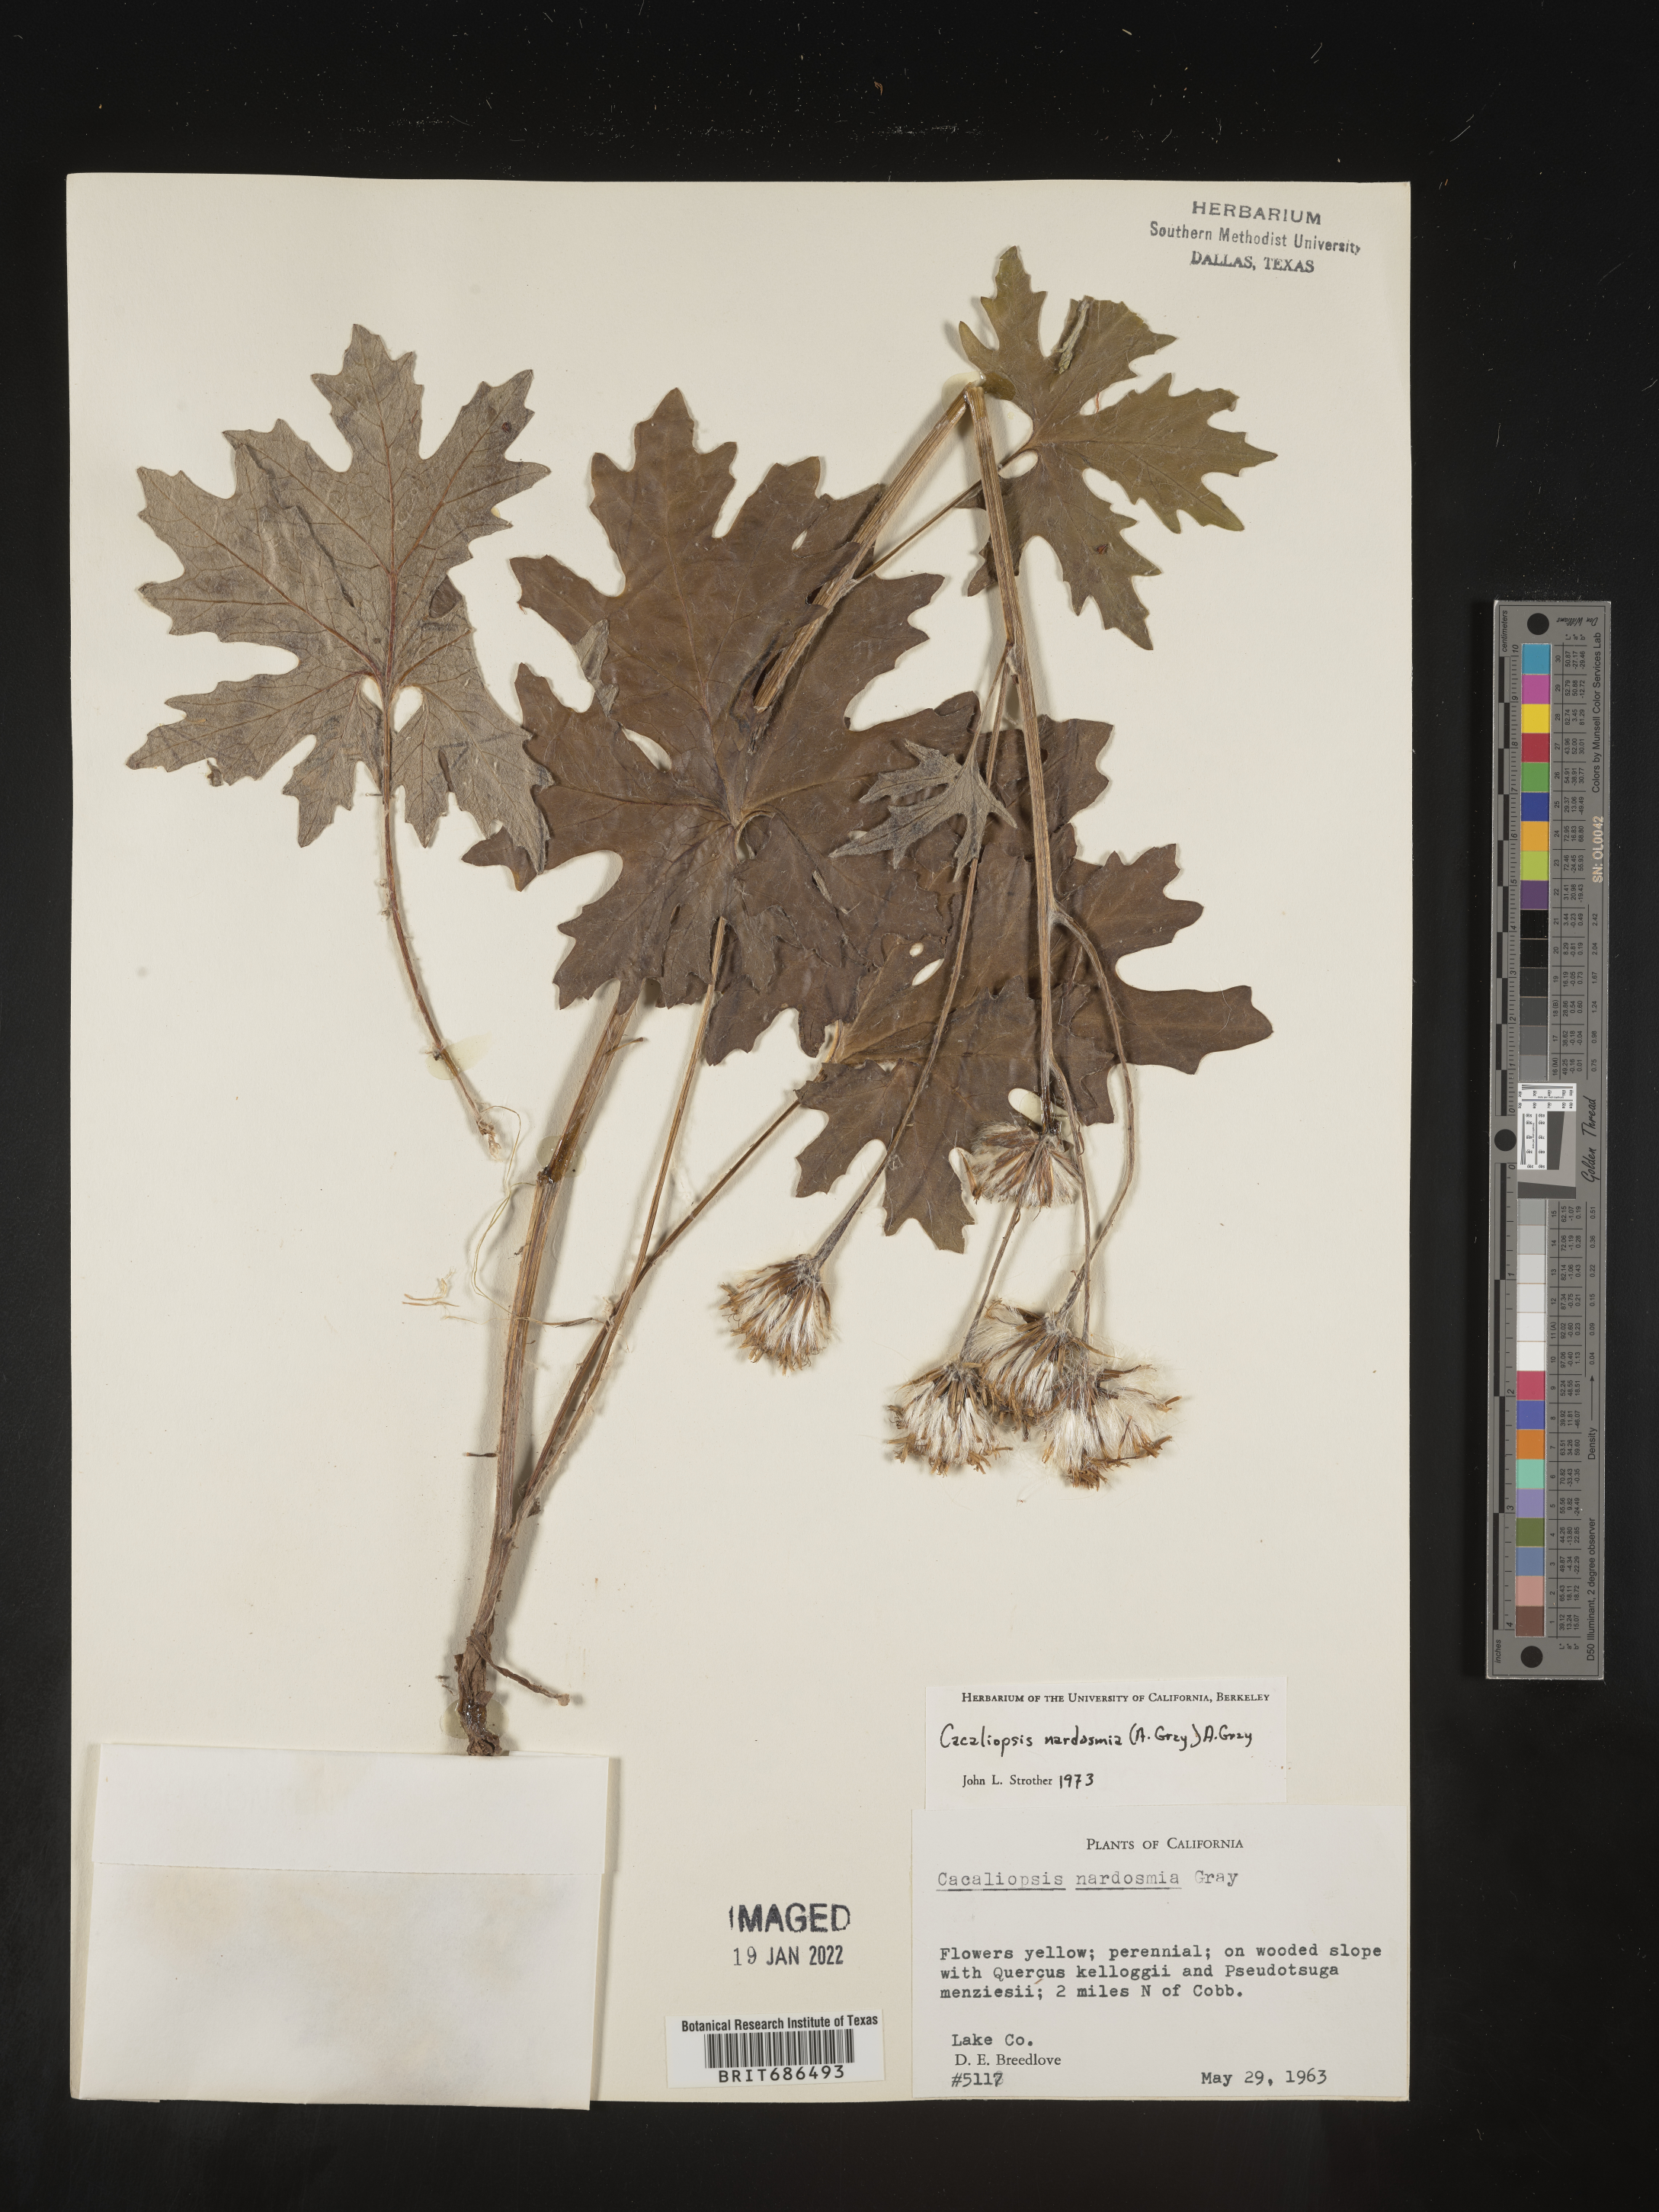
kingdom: Plantae
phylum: Tracheophyta
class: Magnoliopsida
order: Asterales
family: Asteraceae
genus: Cacaliopsis
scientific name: Cacaliopsis
